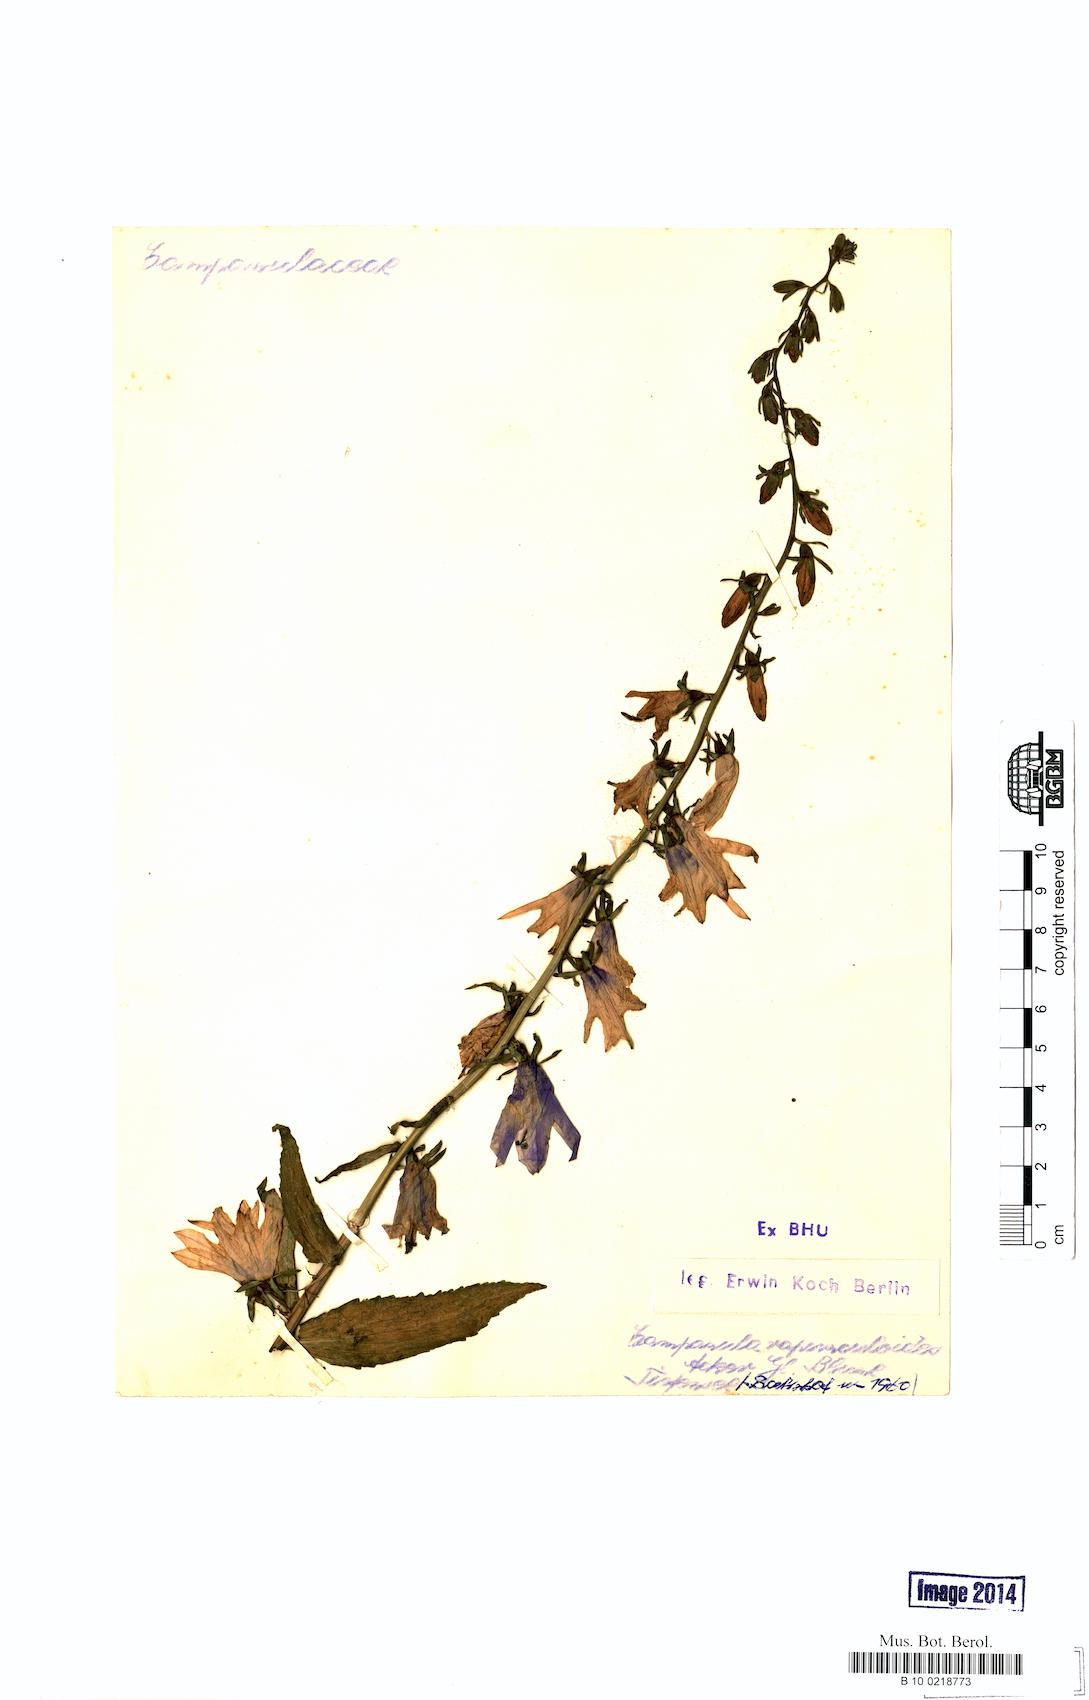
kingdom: Plantae
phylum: Tracheophyta
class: Magnoliopsida
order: Asterales
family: Campanulaceae
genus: Campanula
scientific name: Campanula rapunculoides
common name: Creeping bellflower
